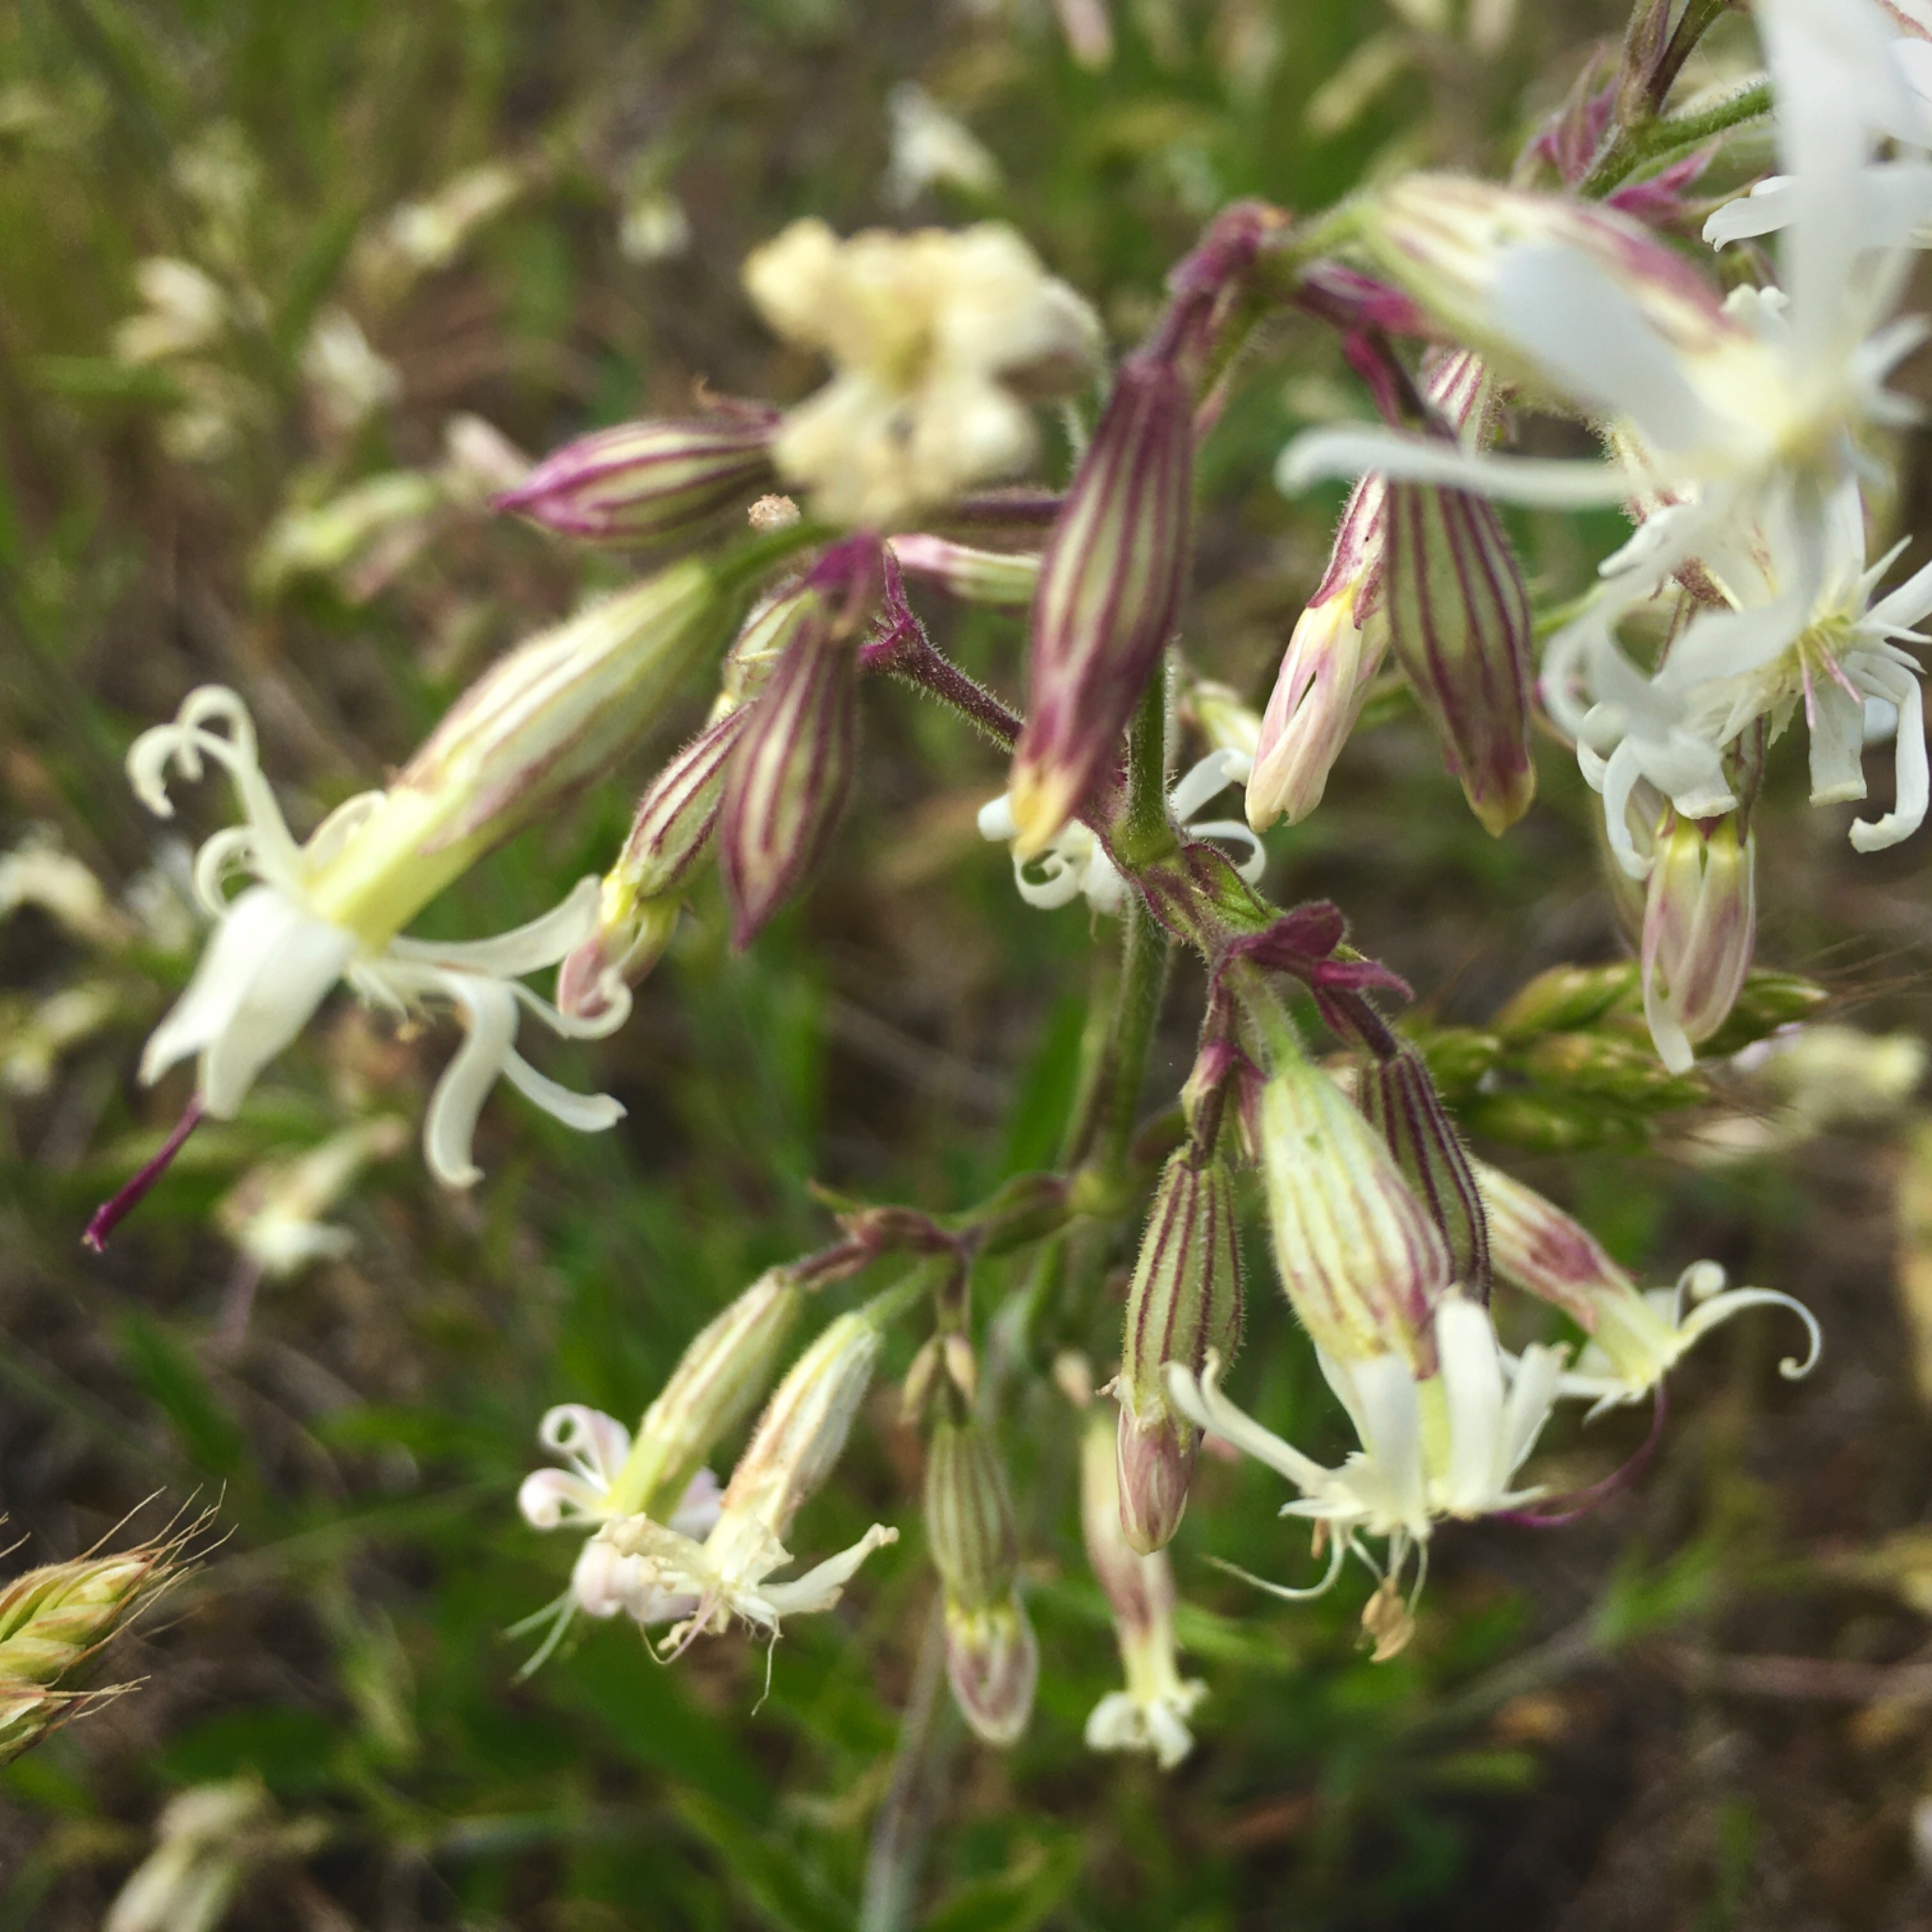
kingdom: Plantae
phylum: Tracheophyta
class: Magnoliopsida
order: Caryophyllales
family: Caryophyllaceae
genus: Silene
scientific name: Silene nutans
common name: Nikkende limurt
